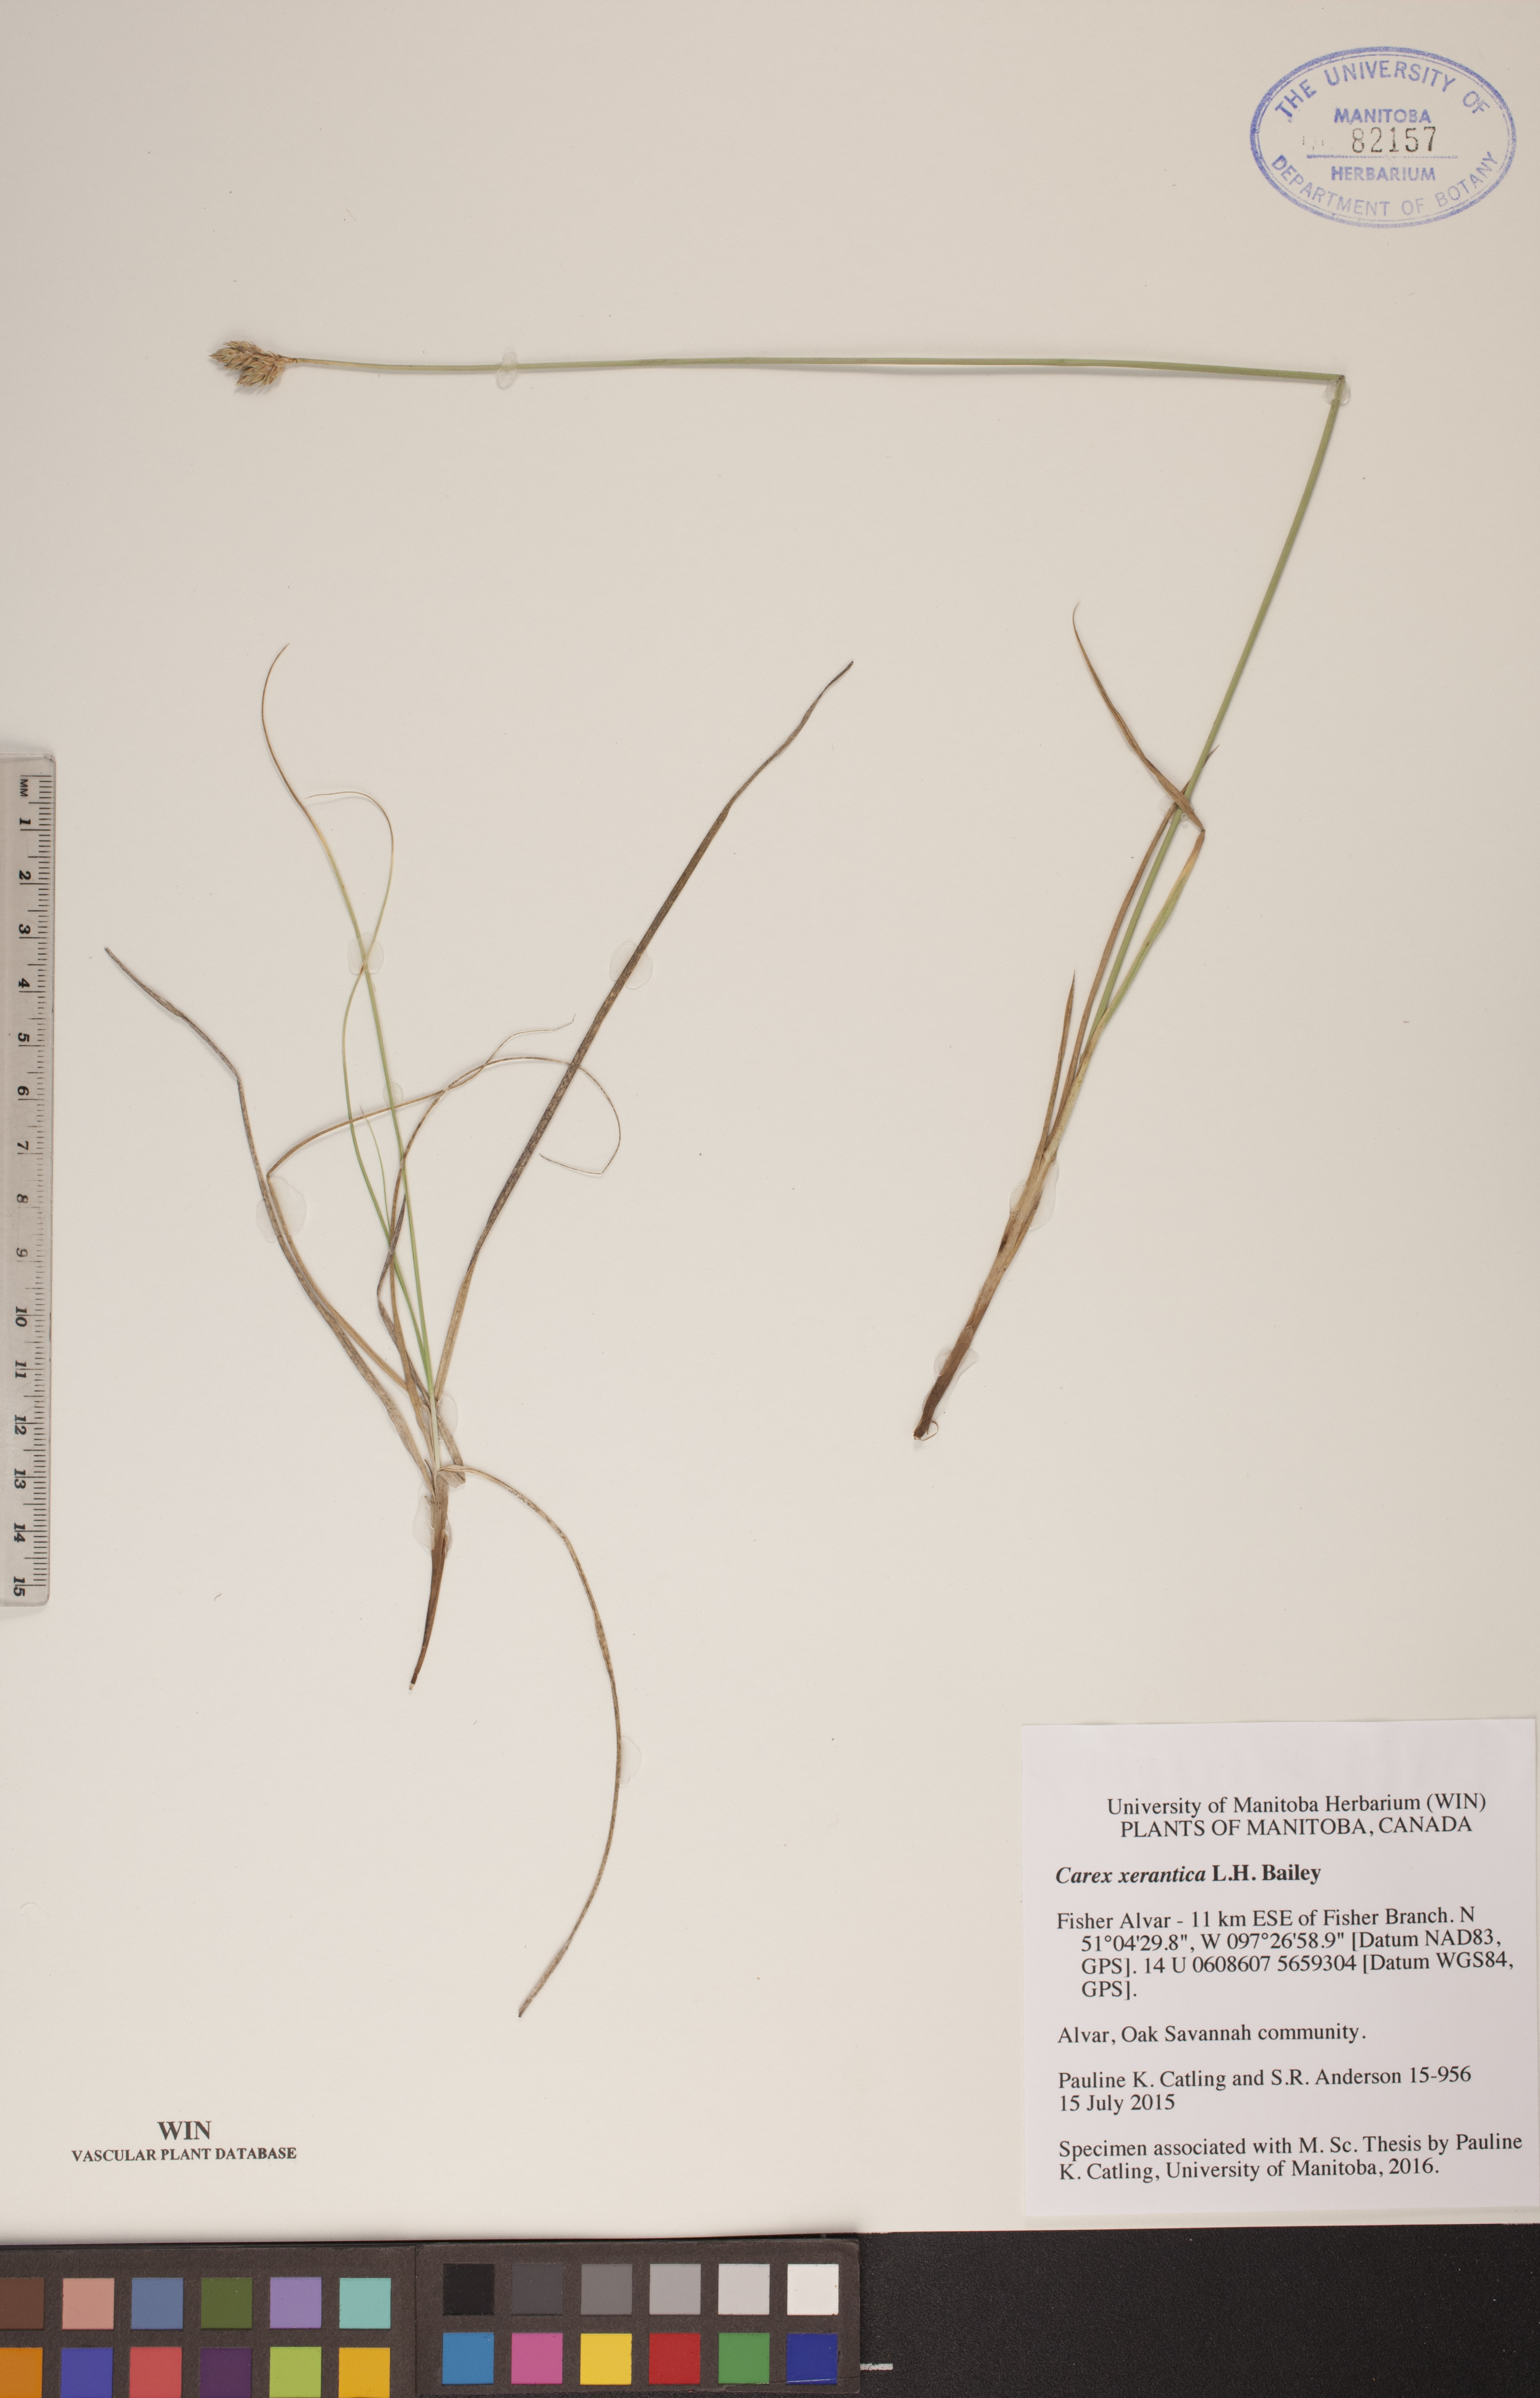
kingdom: Plantae
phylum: Tracheophyta
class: Liliopsida
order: Poales
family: Cyperaceae
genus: Carex
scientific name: Carex xerantica
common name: Dryland sedge
